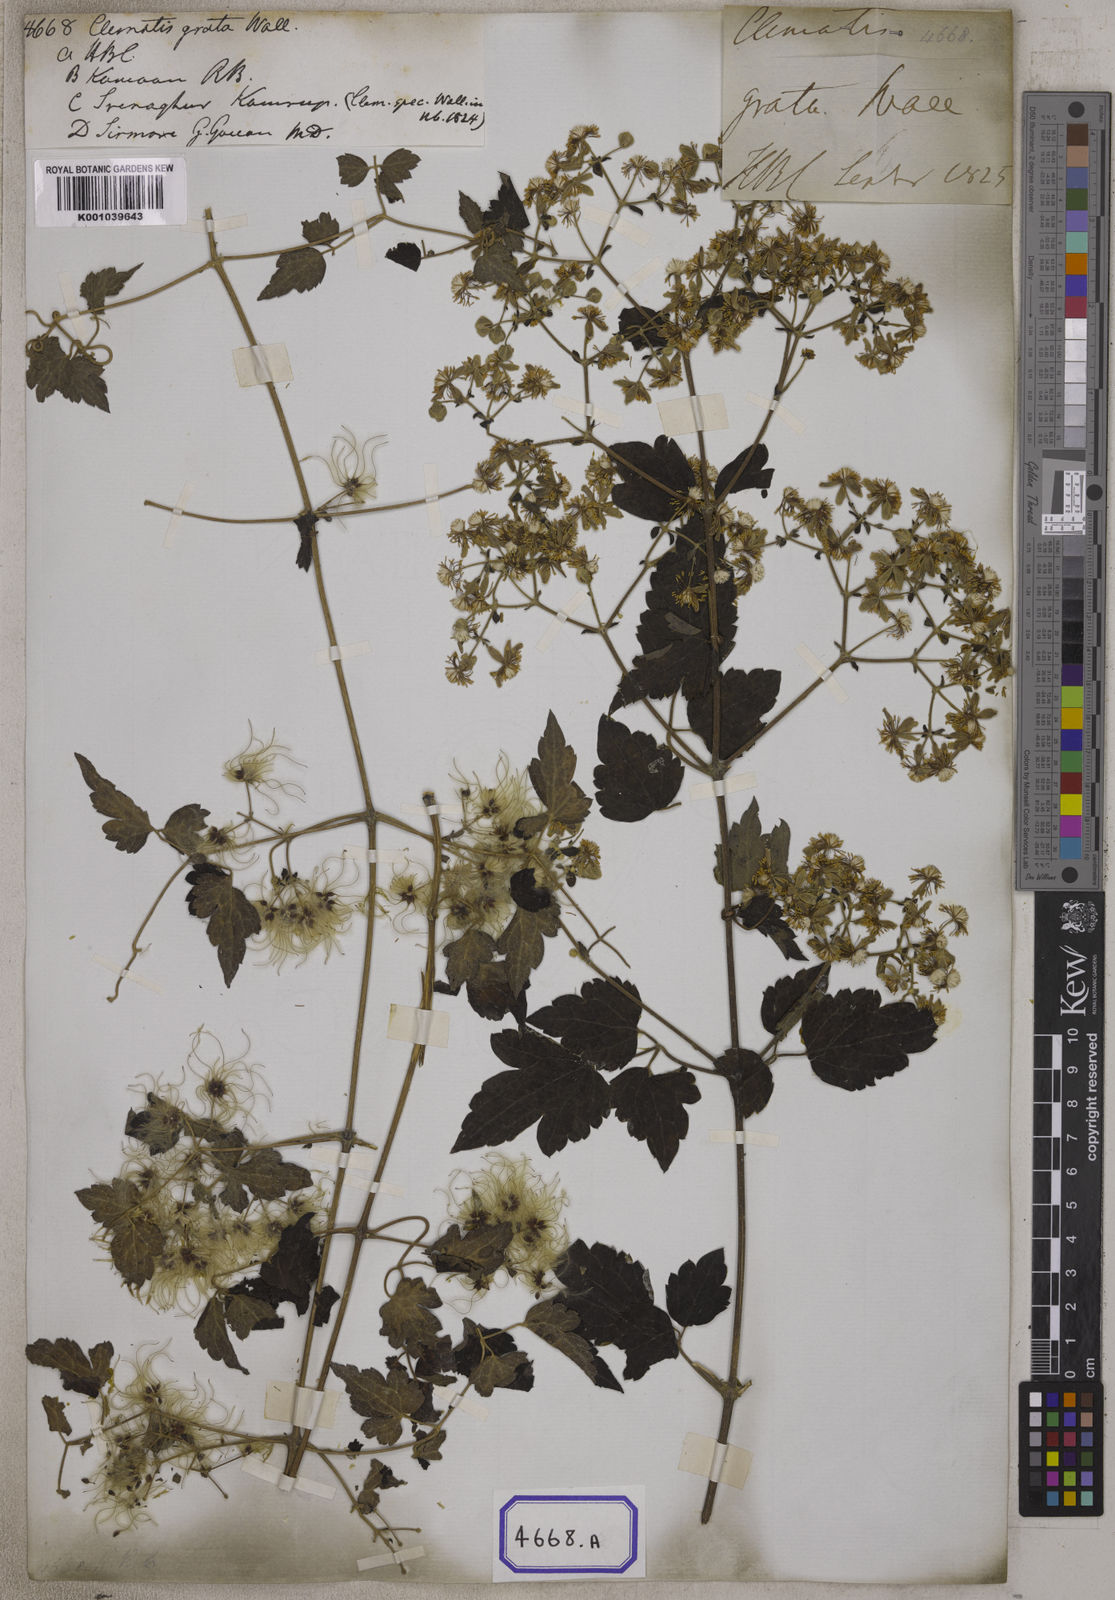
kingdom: Plantae
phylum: Tracheophyta
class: Magnoliopsida
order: Ranunculales
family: Ranunculaceae
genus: Clematis
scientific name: Clematis grata
